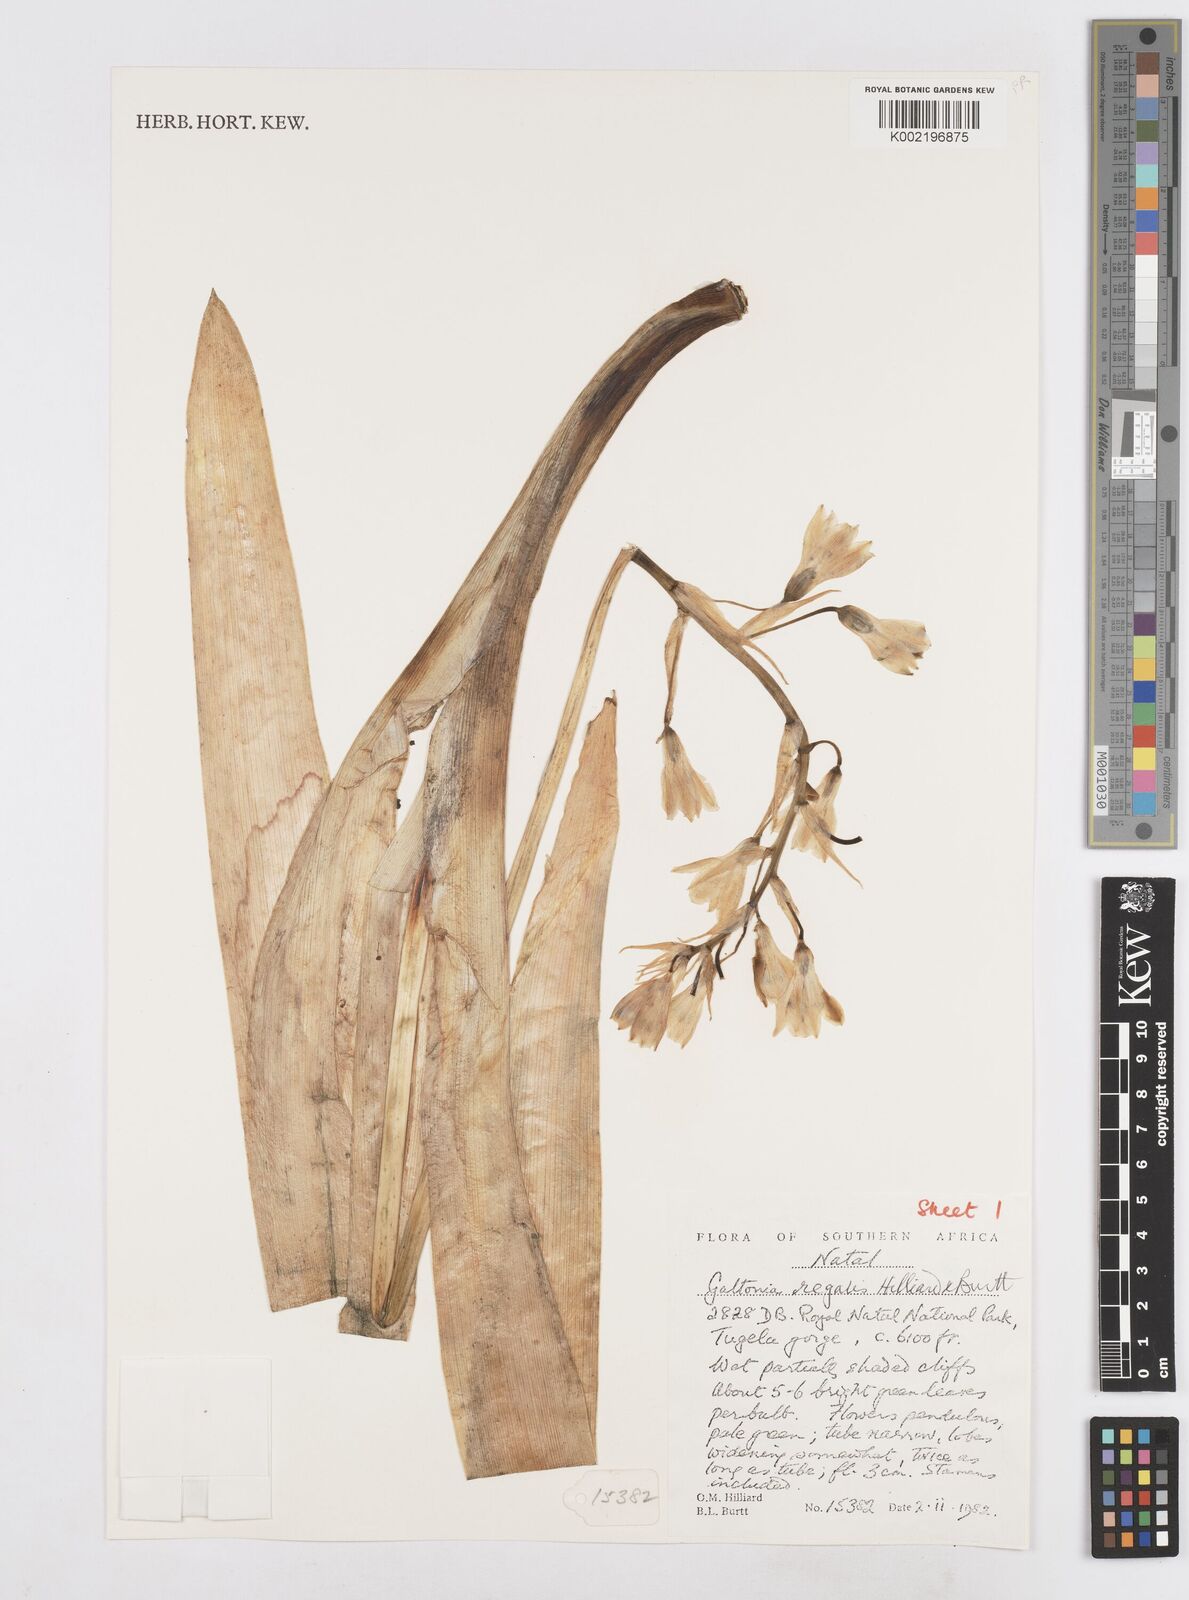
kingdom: Plantae
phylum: Tracheophyta
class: Liliopsida
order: Asparagales
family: Asparagaceae
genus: Ornithogalum
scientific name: Ornithogalum regale
